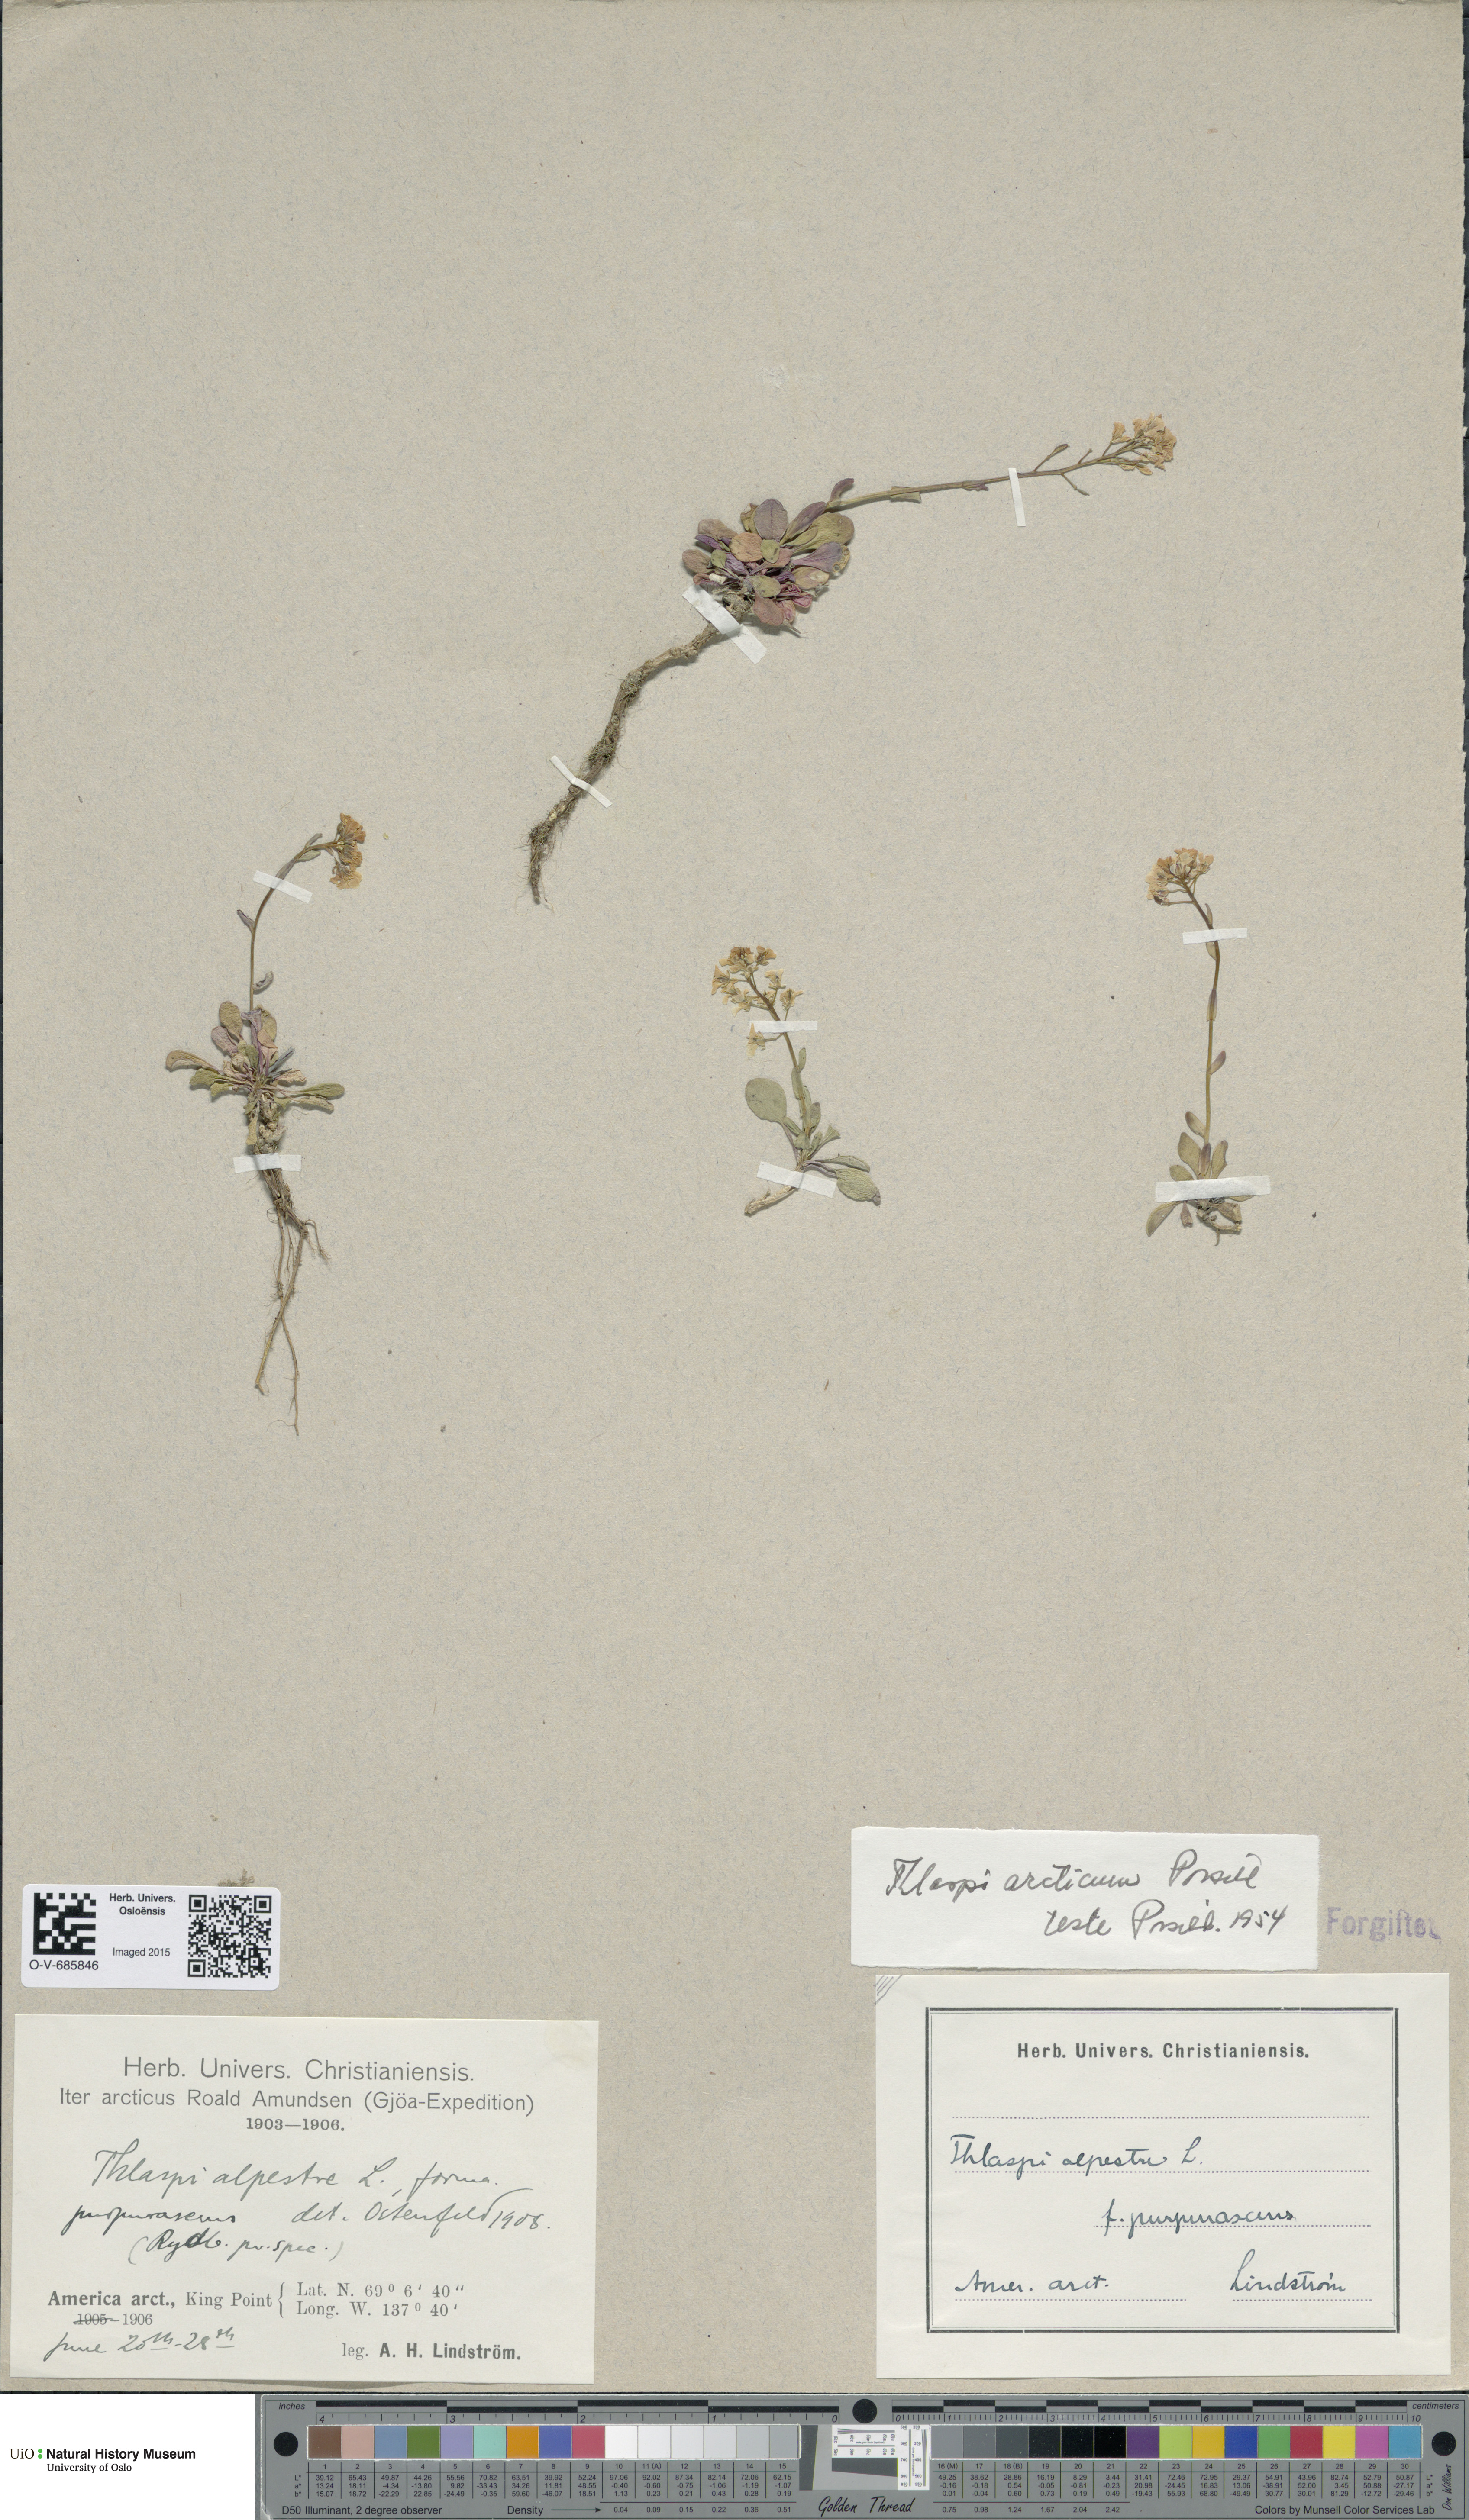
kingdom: Plantae
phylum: Tracheophyta
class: Magnoliopsida
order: Brassicales
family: Brassicaceae
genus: Noccaea
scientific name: Noccaea arctica
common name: Arctic pennycress
